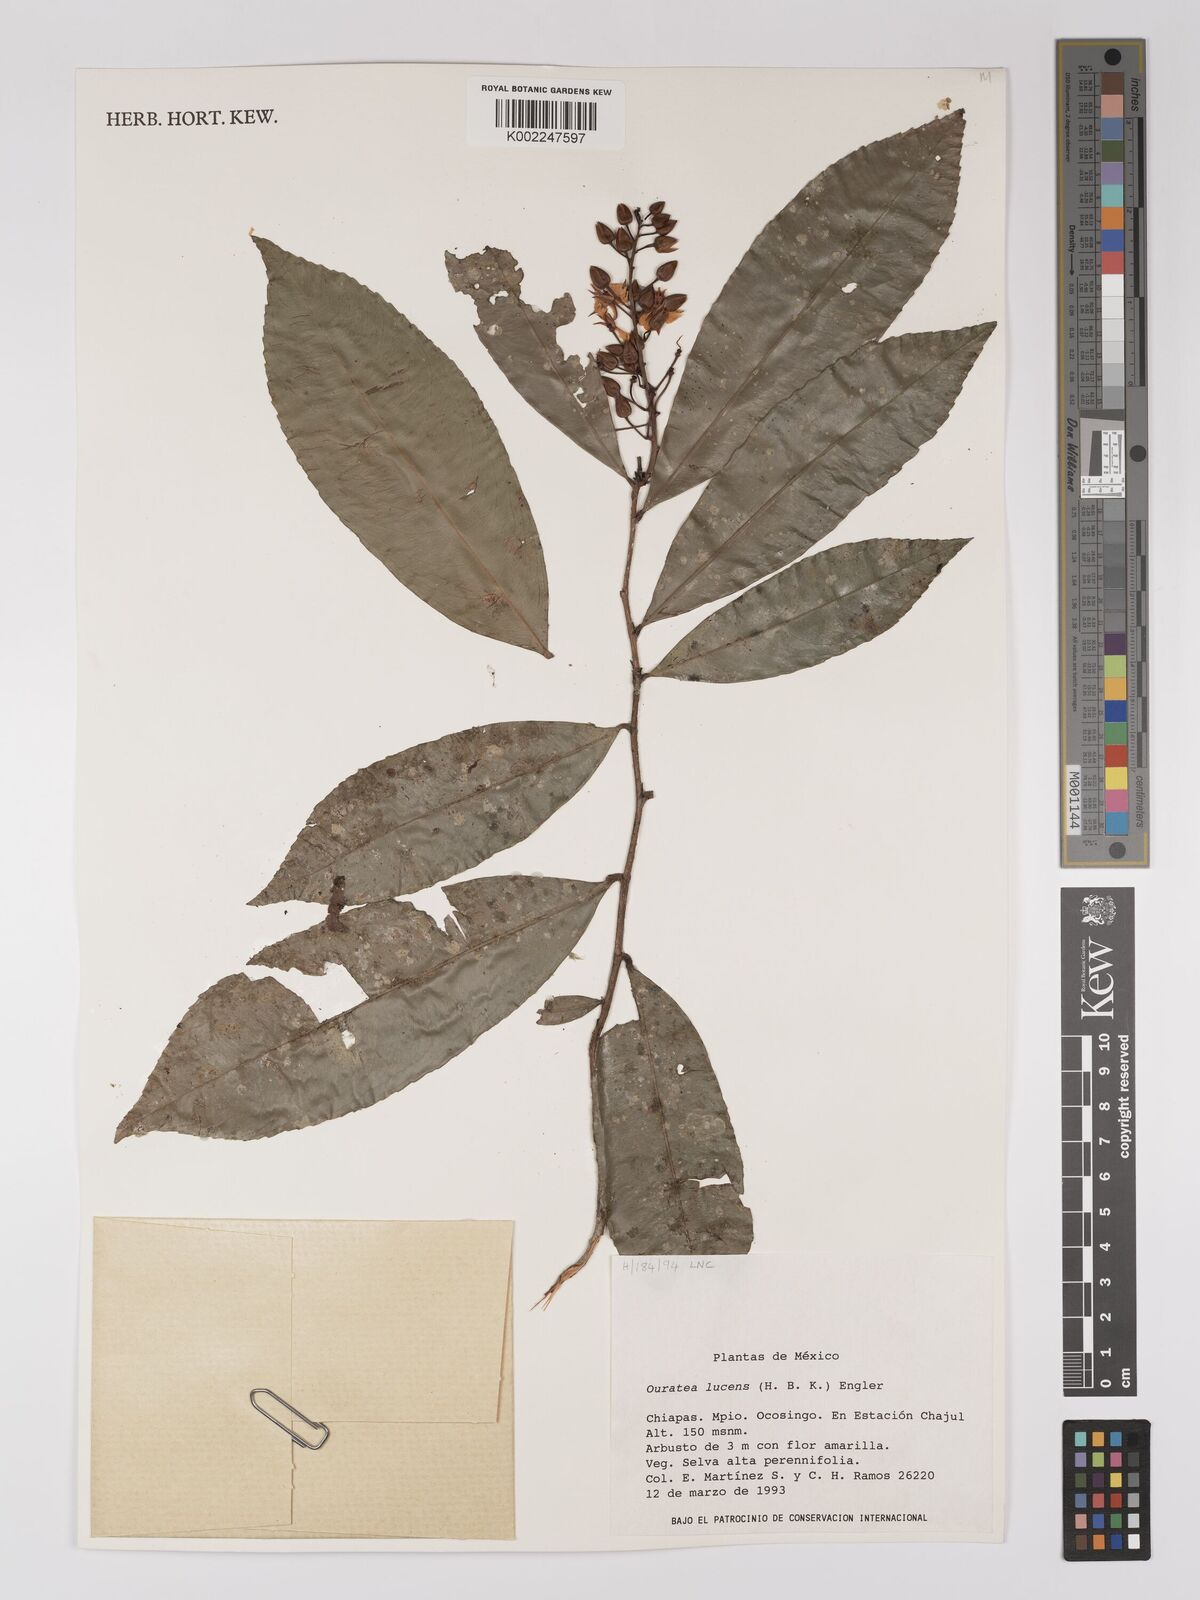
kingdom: Plantae
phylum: Tracheophyta
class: Magnoliopsida
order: Malpighiales
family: Ochnaceae
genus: Ouratea
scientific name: Ouratea lucens
